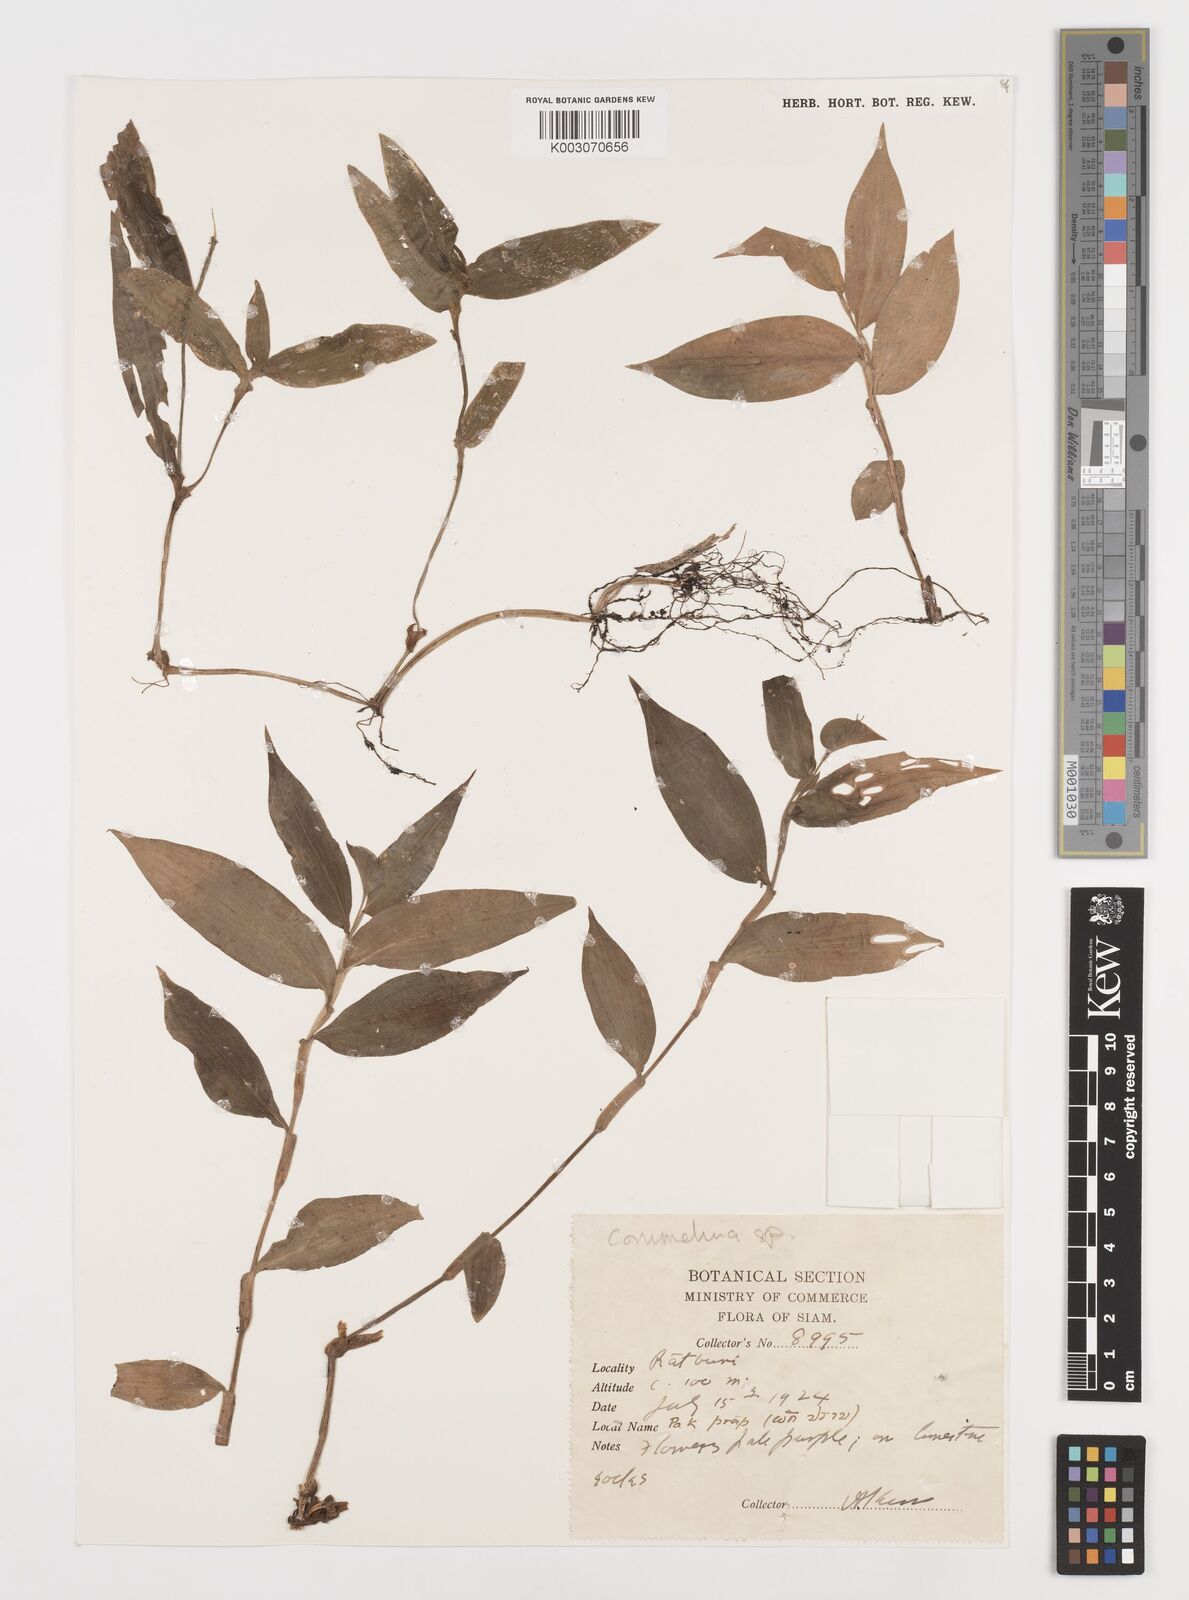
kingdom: Plantae
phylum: Tracheophyta
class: Liliopsida
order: Commelinales
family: Commelinaceae
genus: Commelina
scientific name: Commelina
